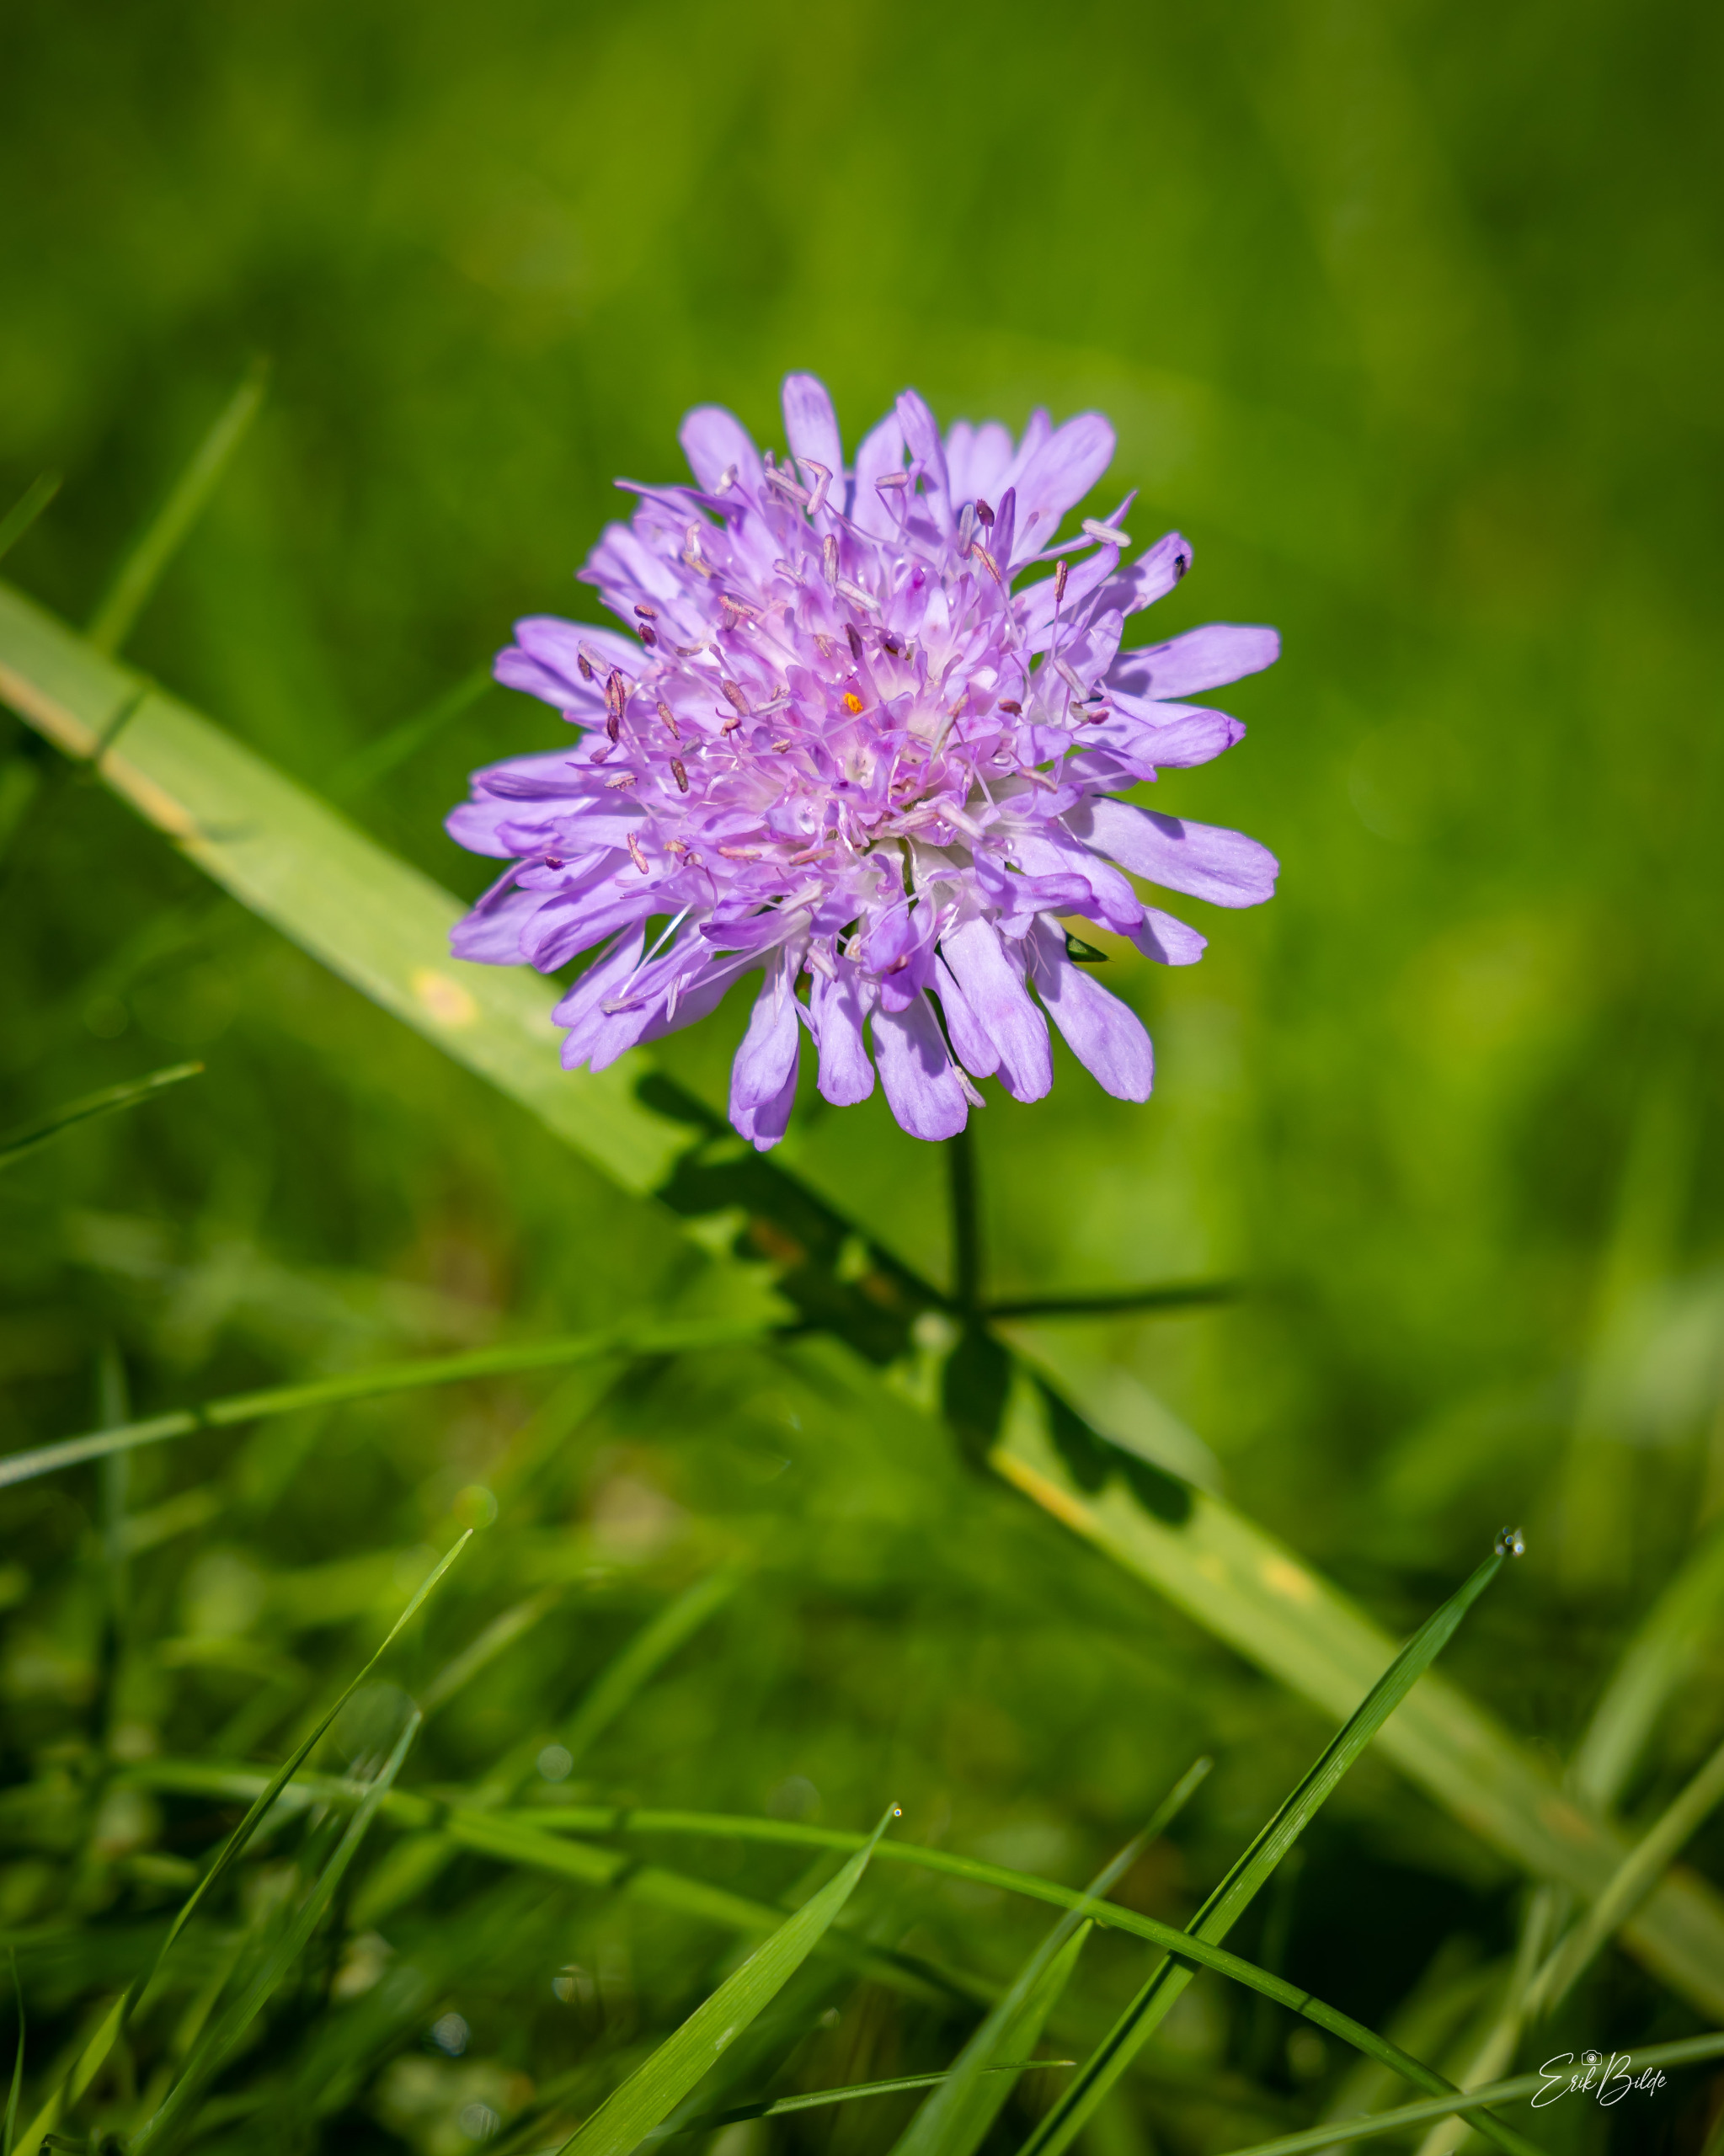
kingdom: Plantae
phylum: Tracheophyta
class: Magnoliopsida
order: Dipsacales
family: Caprifoliaceae
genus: Knautia
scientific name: Knautia arvensis
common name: Blåhat
